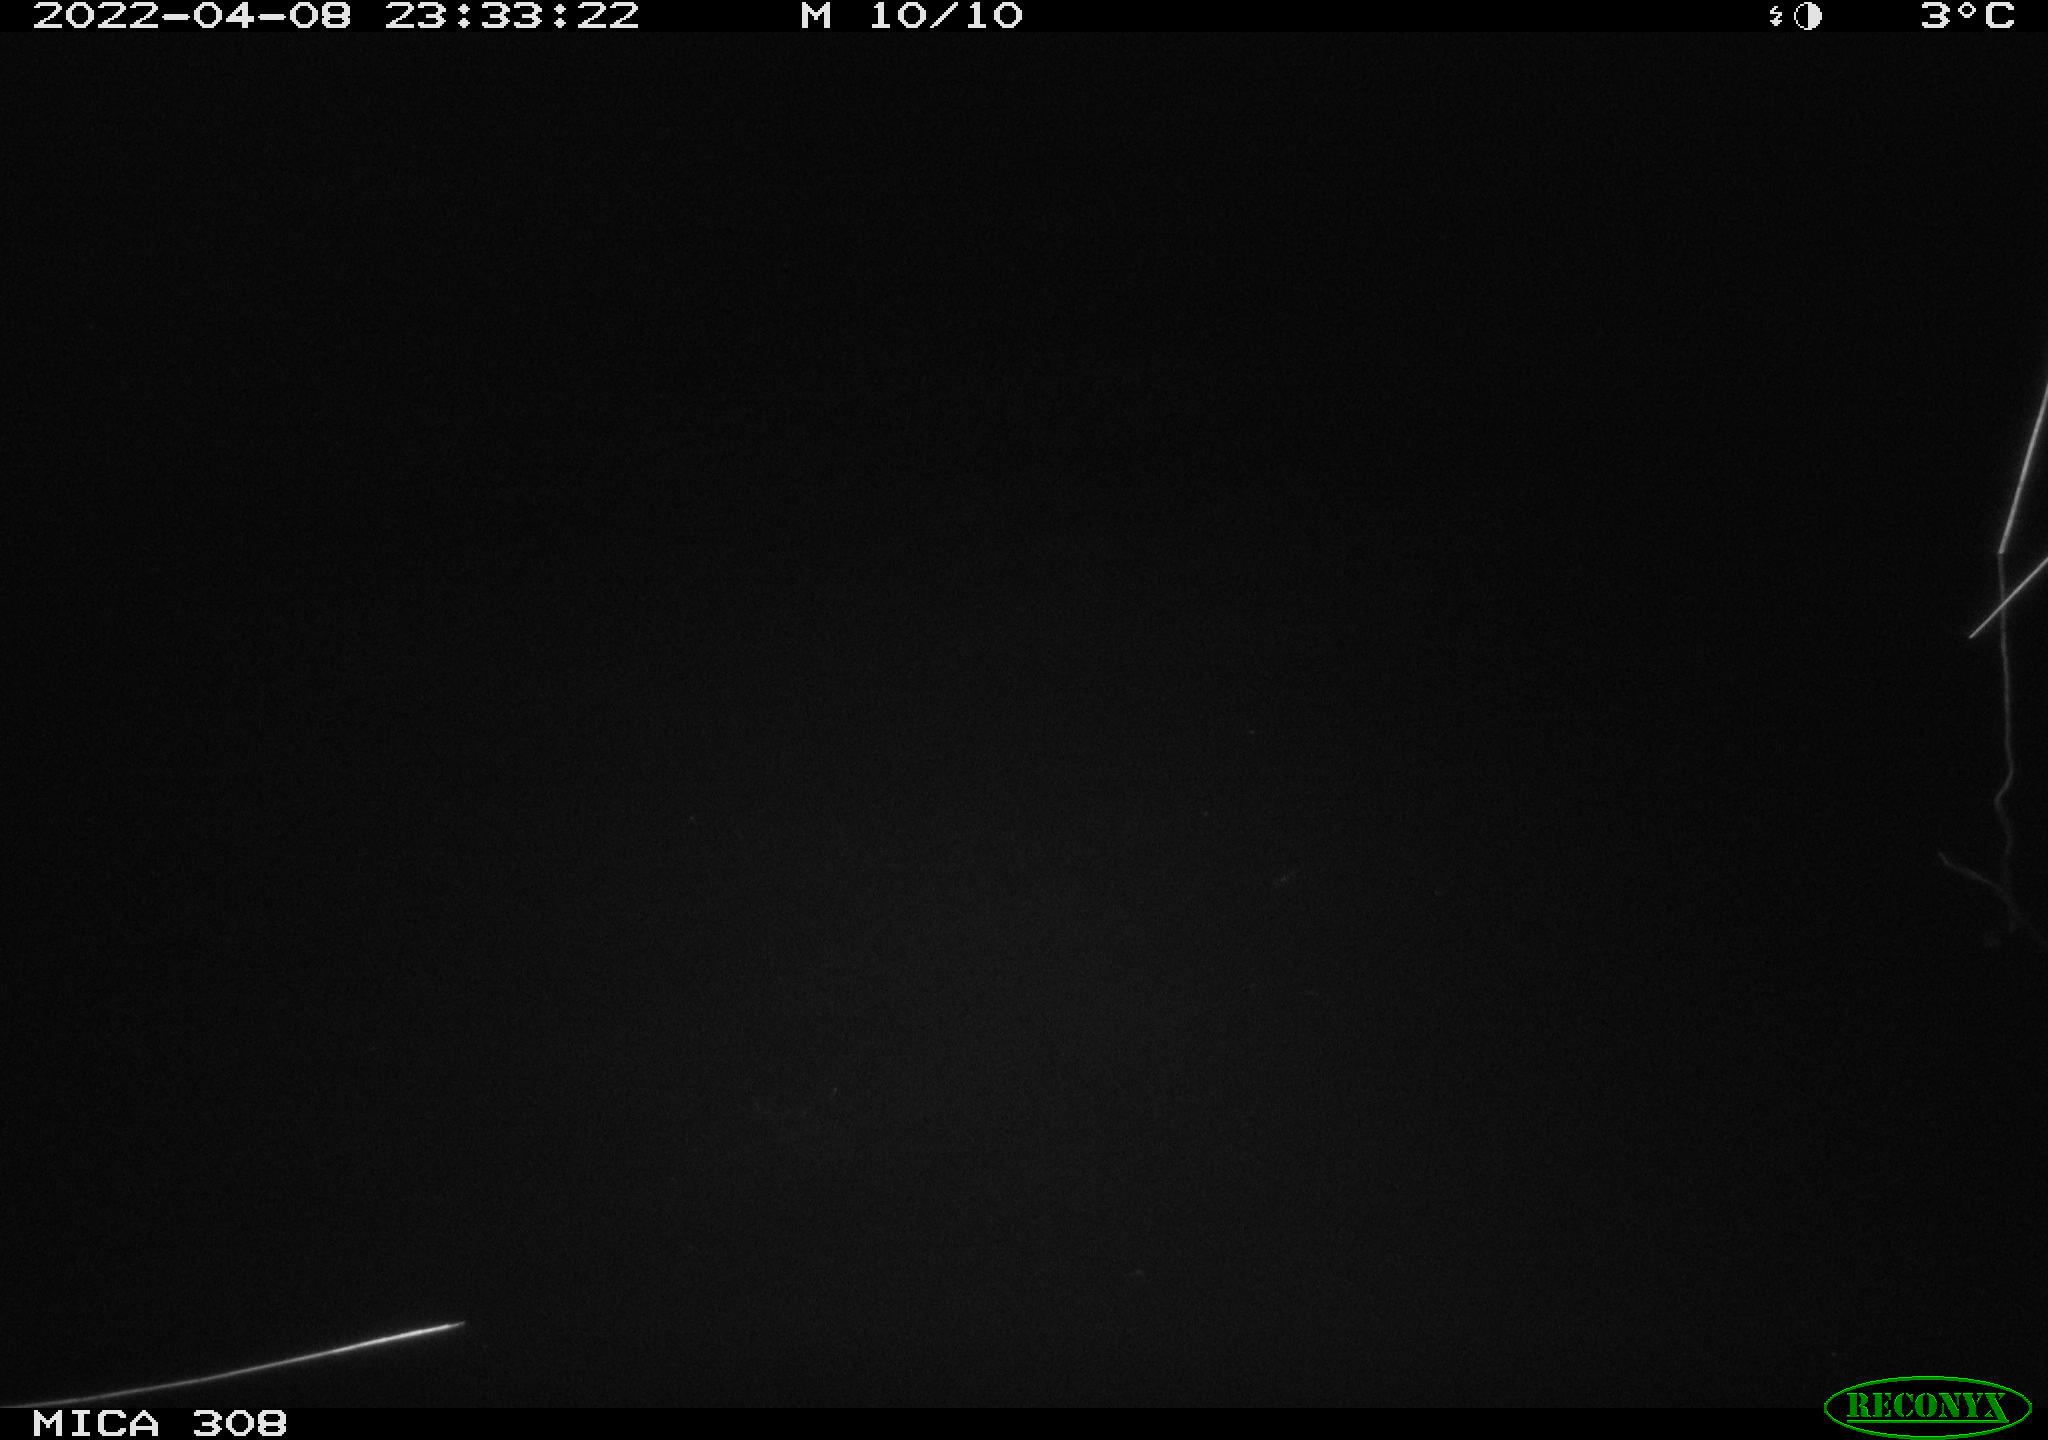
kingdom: Animalia
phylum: Chordata
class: Aves
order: Anseriformes
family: Anatidae
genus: Anas
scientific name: Anas platyrhynchos
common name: Mallard
